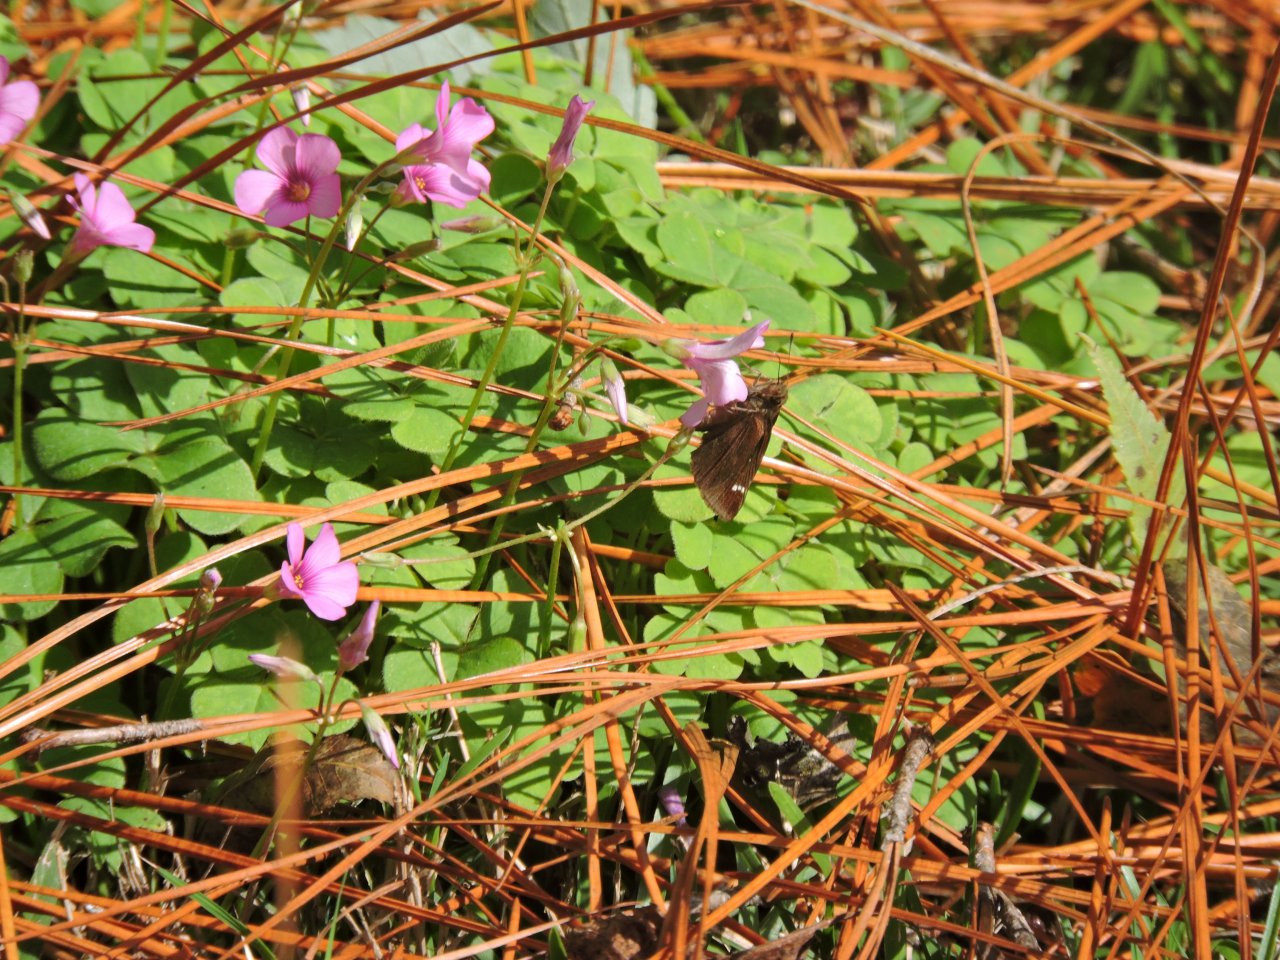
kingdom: Animalia
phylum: Arthropoda
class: Insecta
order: Lepidoptera
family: Hesperiidae
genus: Lerema
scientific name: Lerema accius
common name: Clouded Skipper
